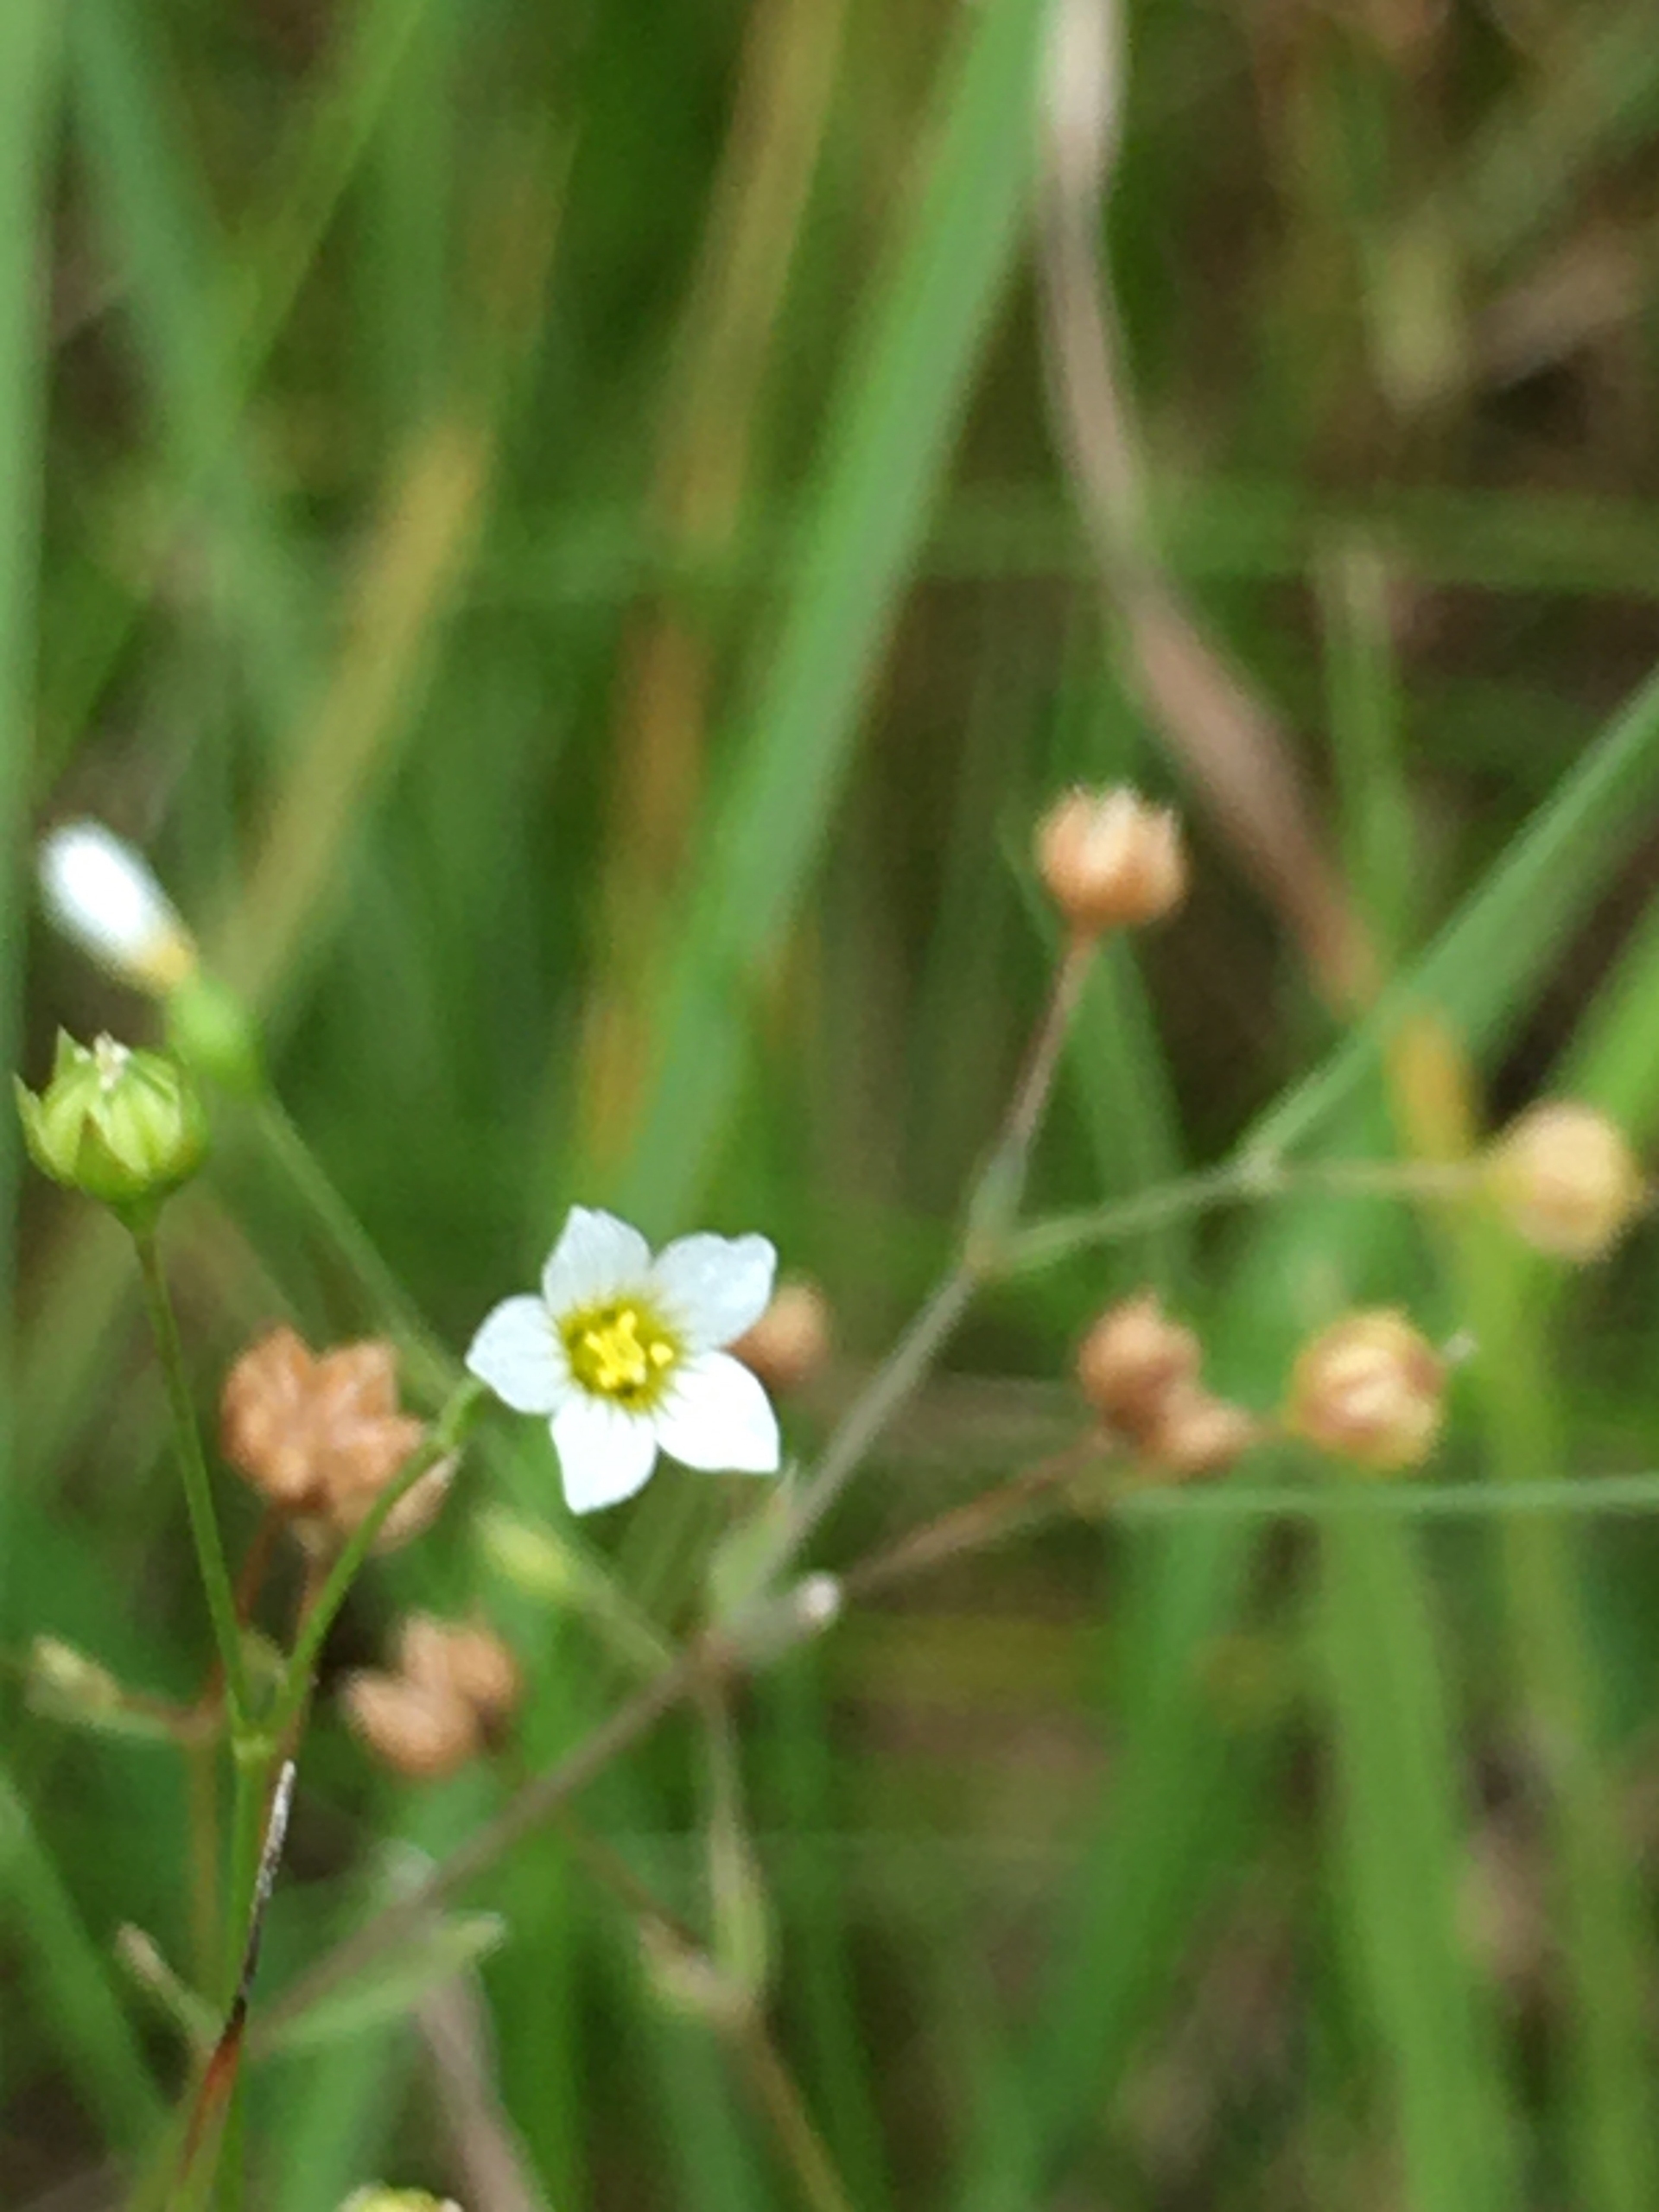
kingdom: Plantae
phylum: Tracheophyta
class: Magnoliopsida
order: Malpighiales
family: Linaceae
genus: Linum
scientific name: Linum catharticum
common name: Vild hør
